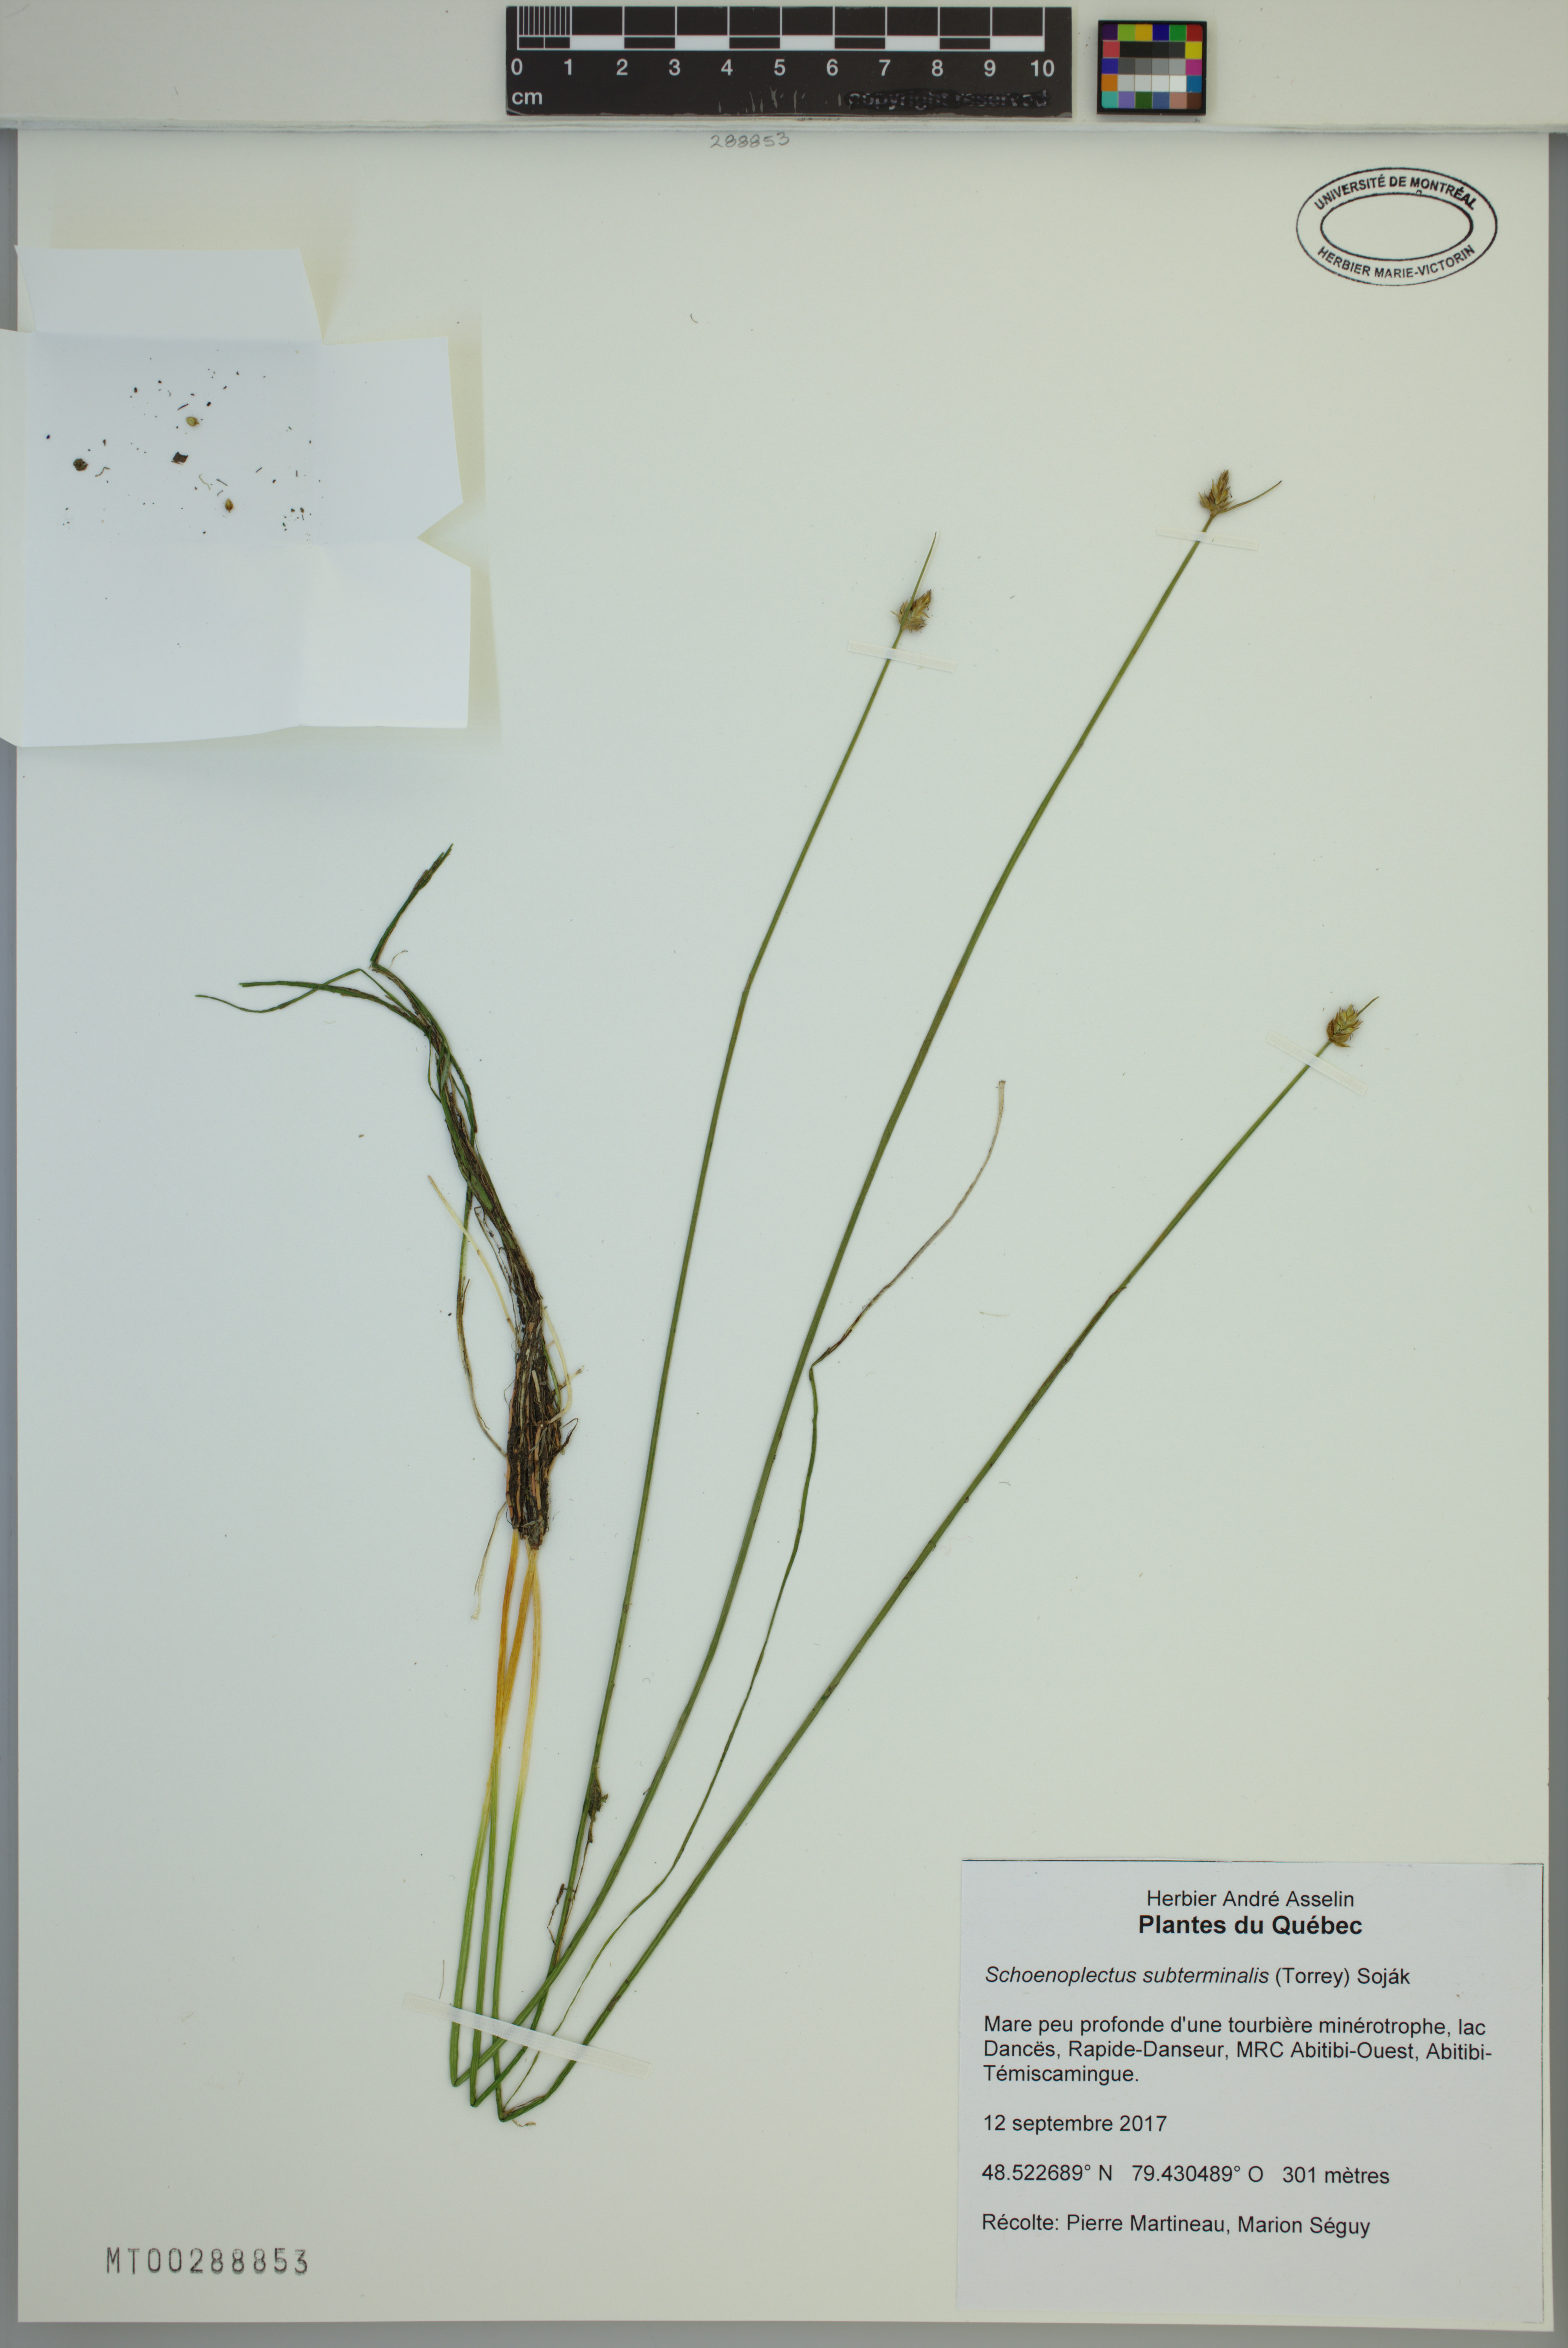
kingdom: Plantae
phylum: Tracheophyta
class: Liliopsida
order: Poales
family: Cyperaceae
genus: Schoenoplectus
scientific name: Schoenoplectus subterminalis
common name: Swaying bulrush
